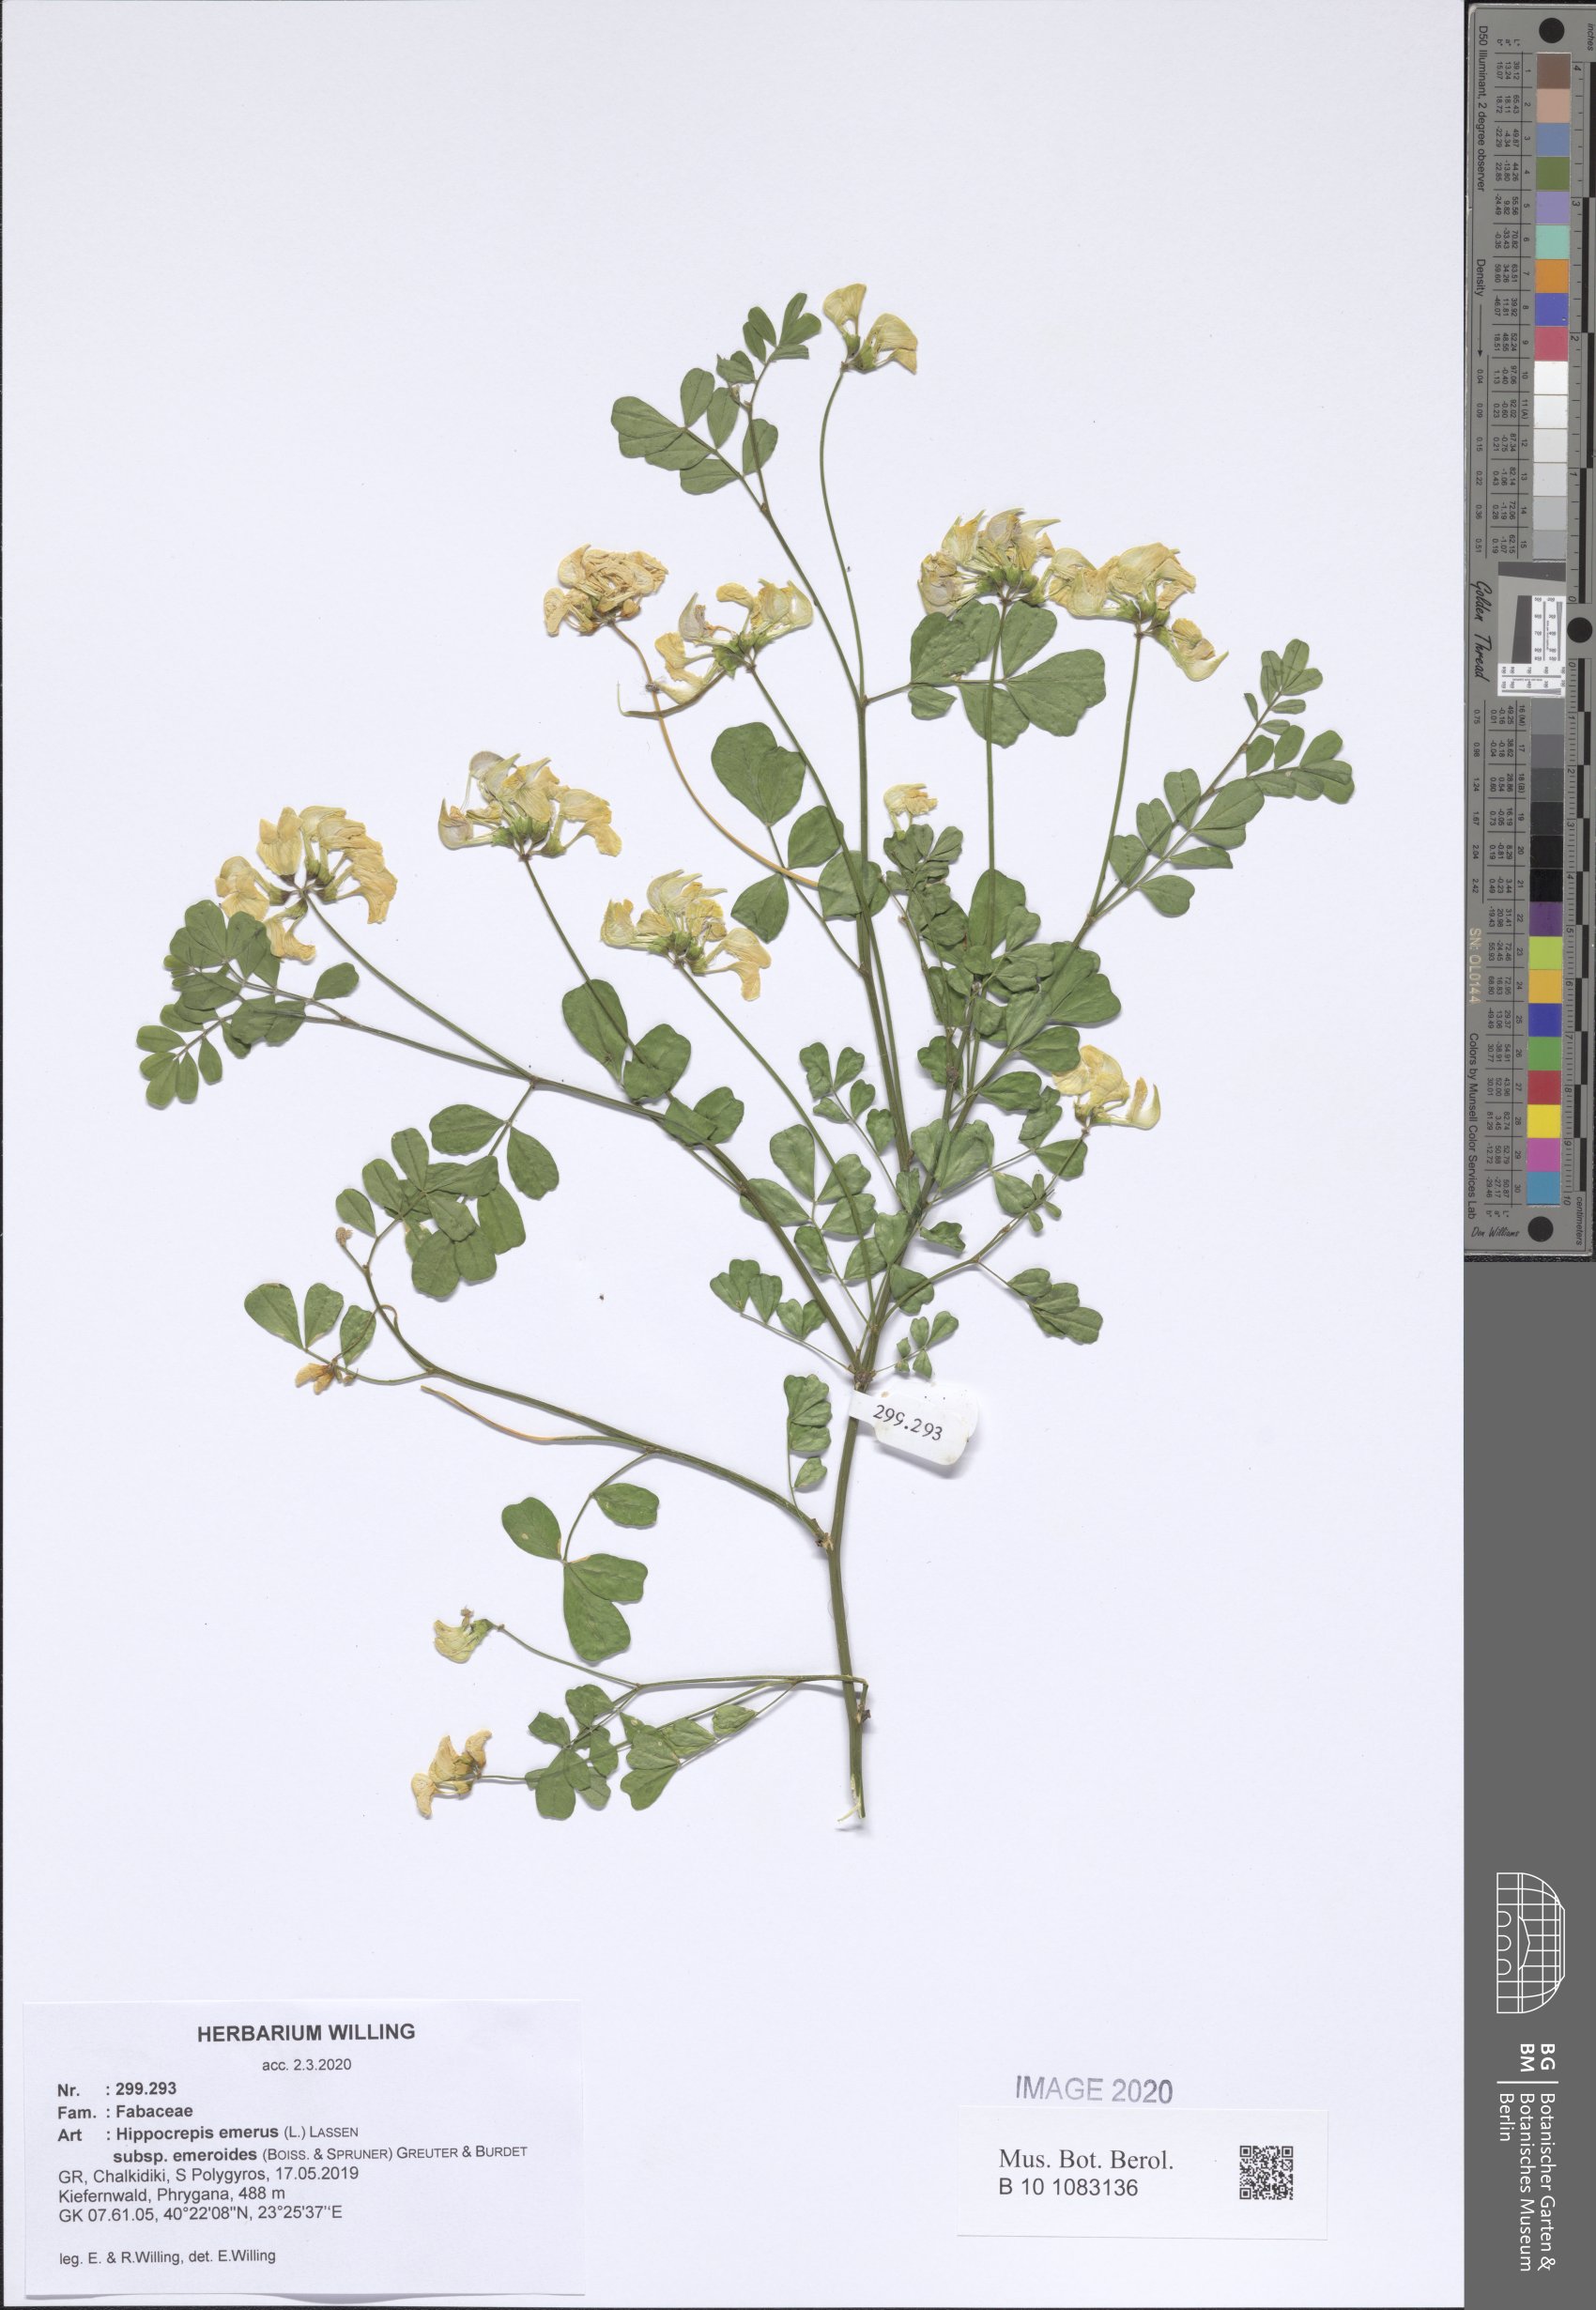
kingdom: Plantae
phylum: Tracheophyta
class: Magnoliopsida
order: Fabales
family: Fabaceae
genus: Hippocrepis
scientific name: Hippocrepis emerus
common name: Scorpion senna
